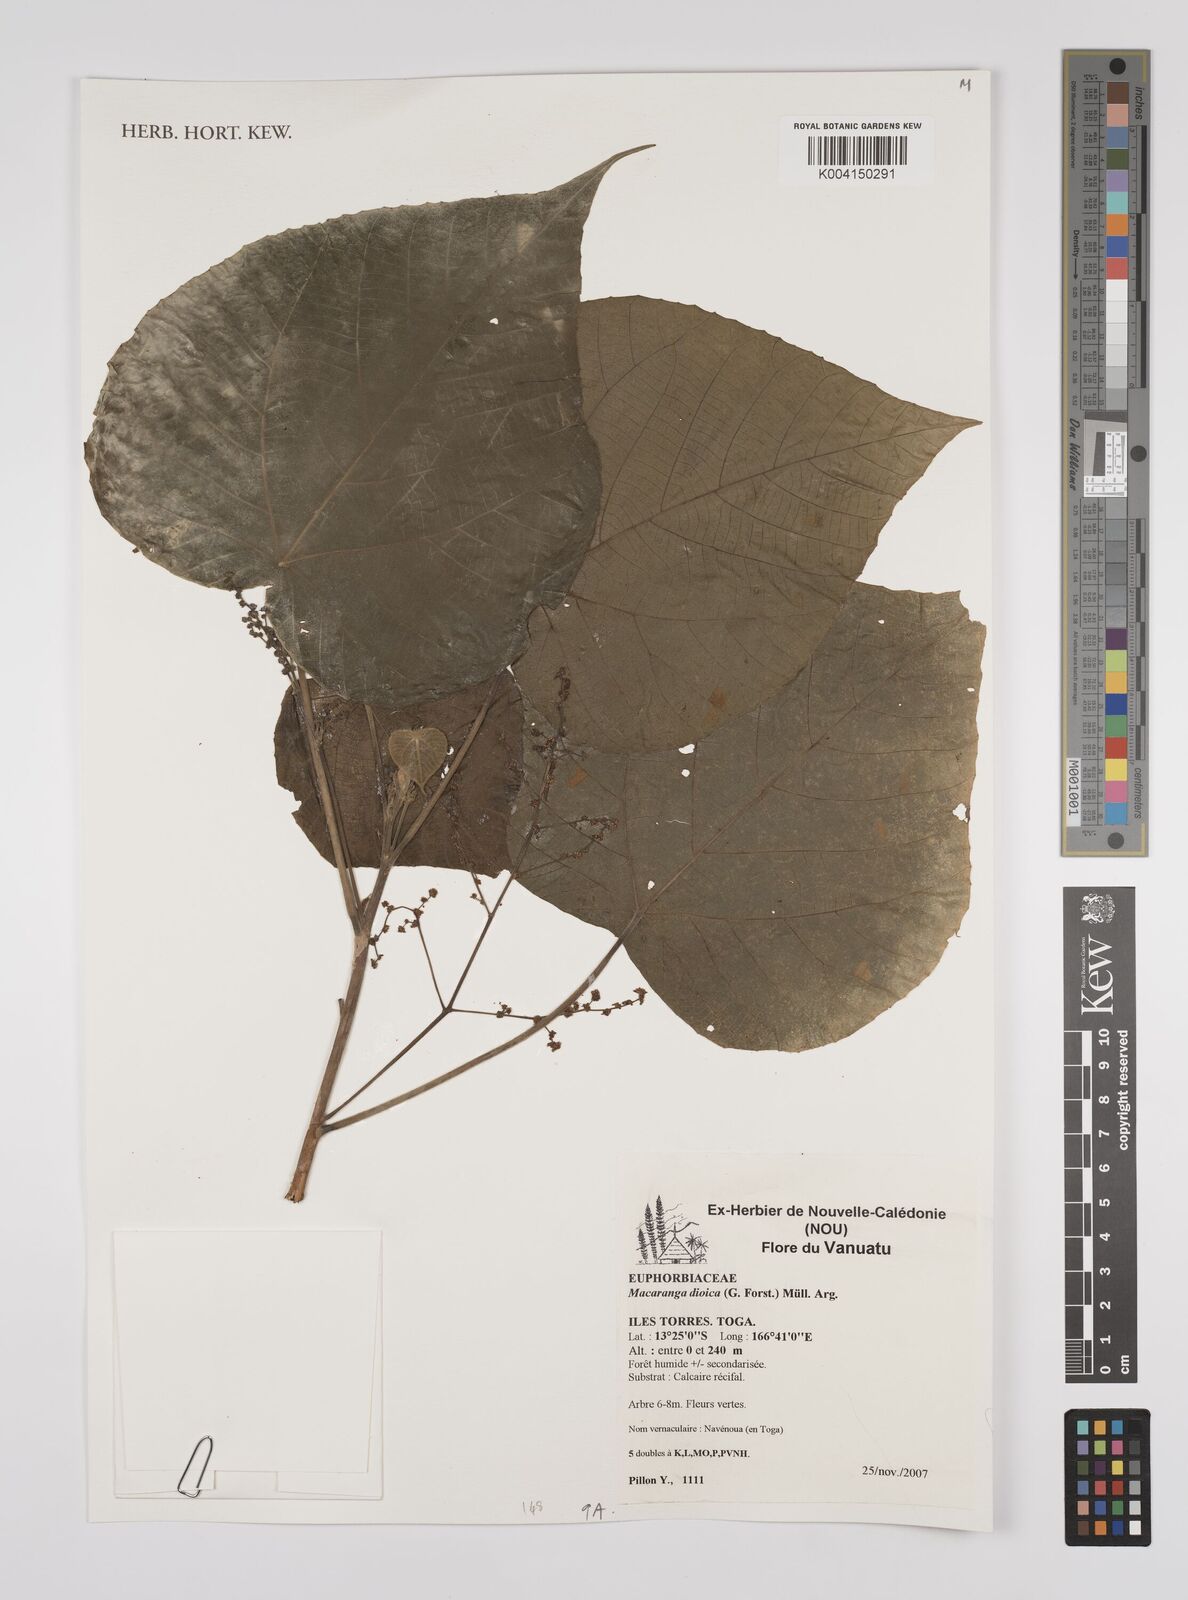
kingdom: Plantae
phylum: Tracheophyta
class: Magnoliopsida
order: Malpighiales
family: Euphorbiaceae
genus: Macaranga
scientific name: Macaranga dioica
